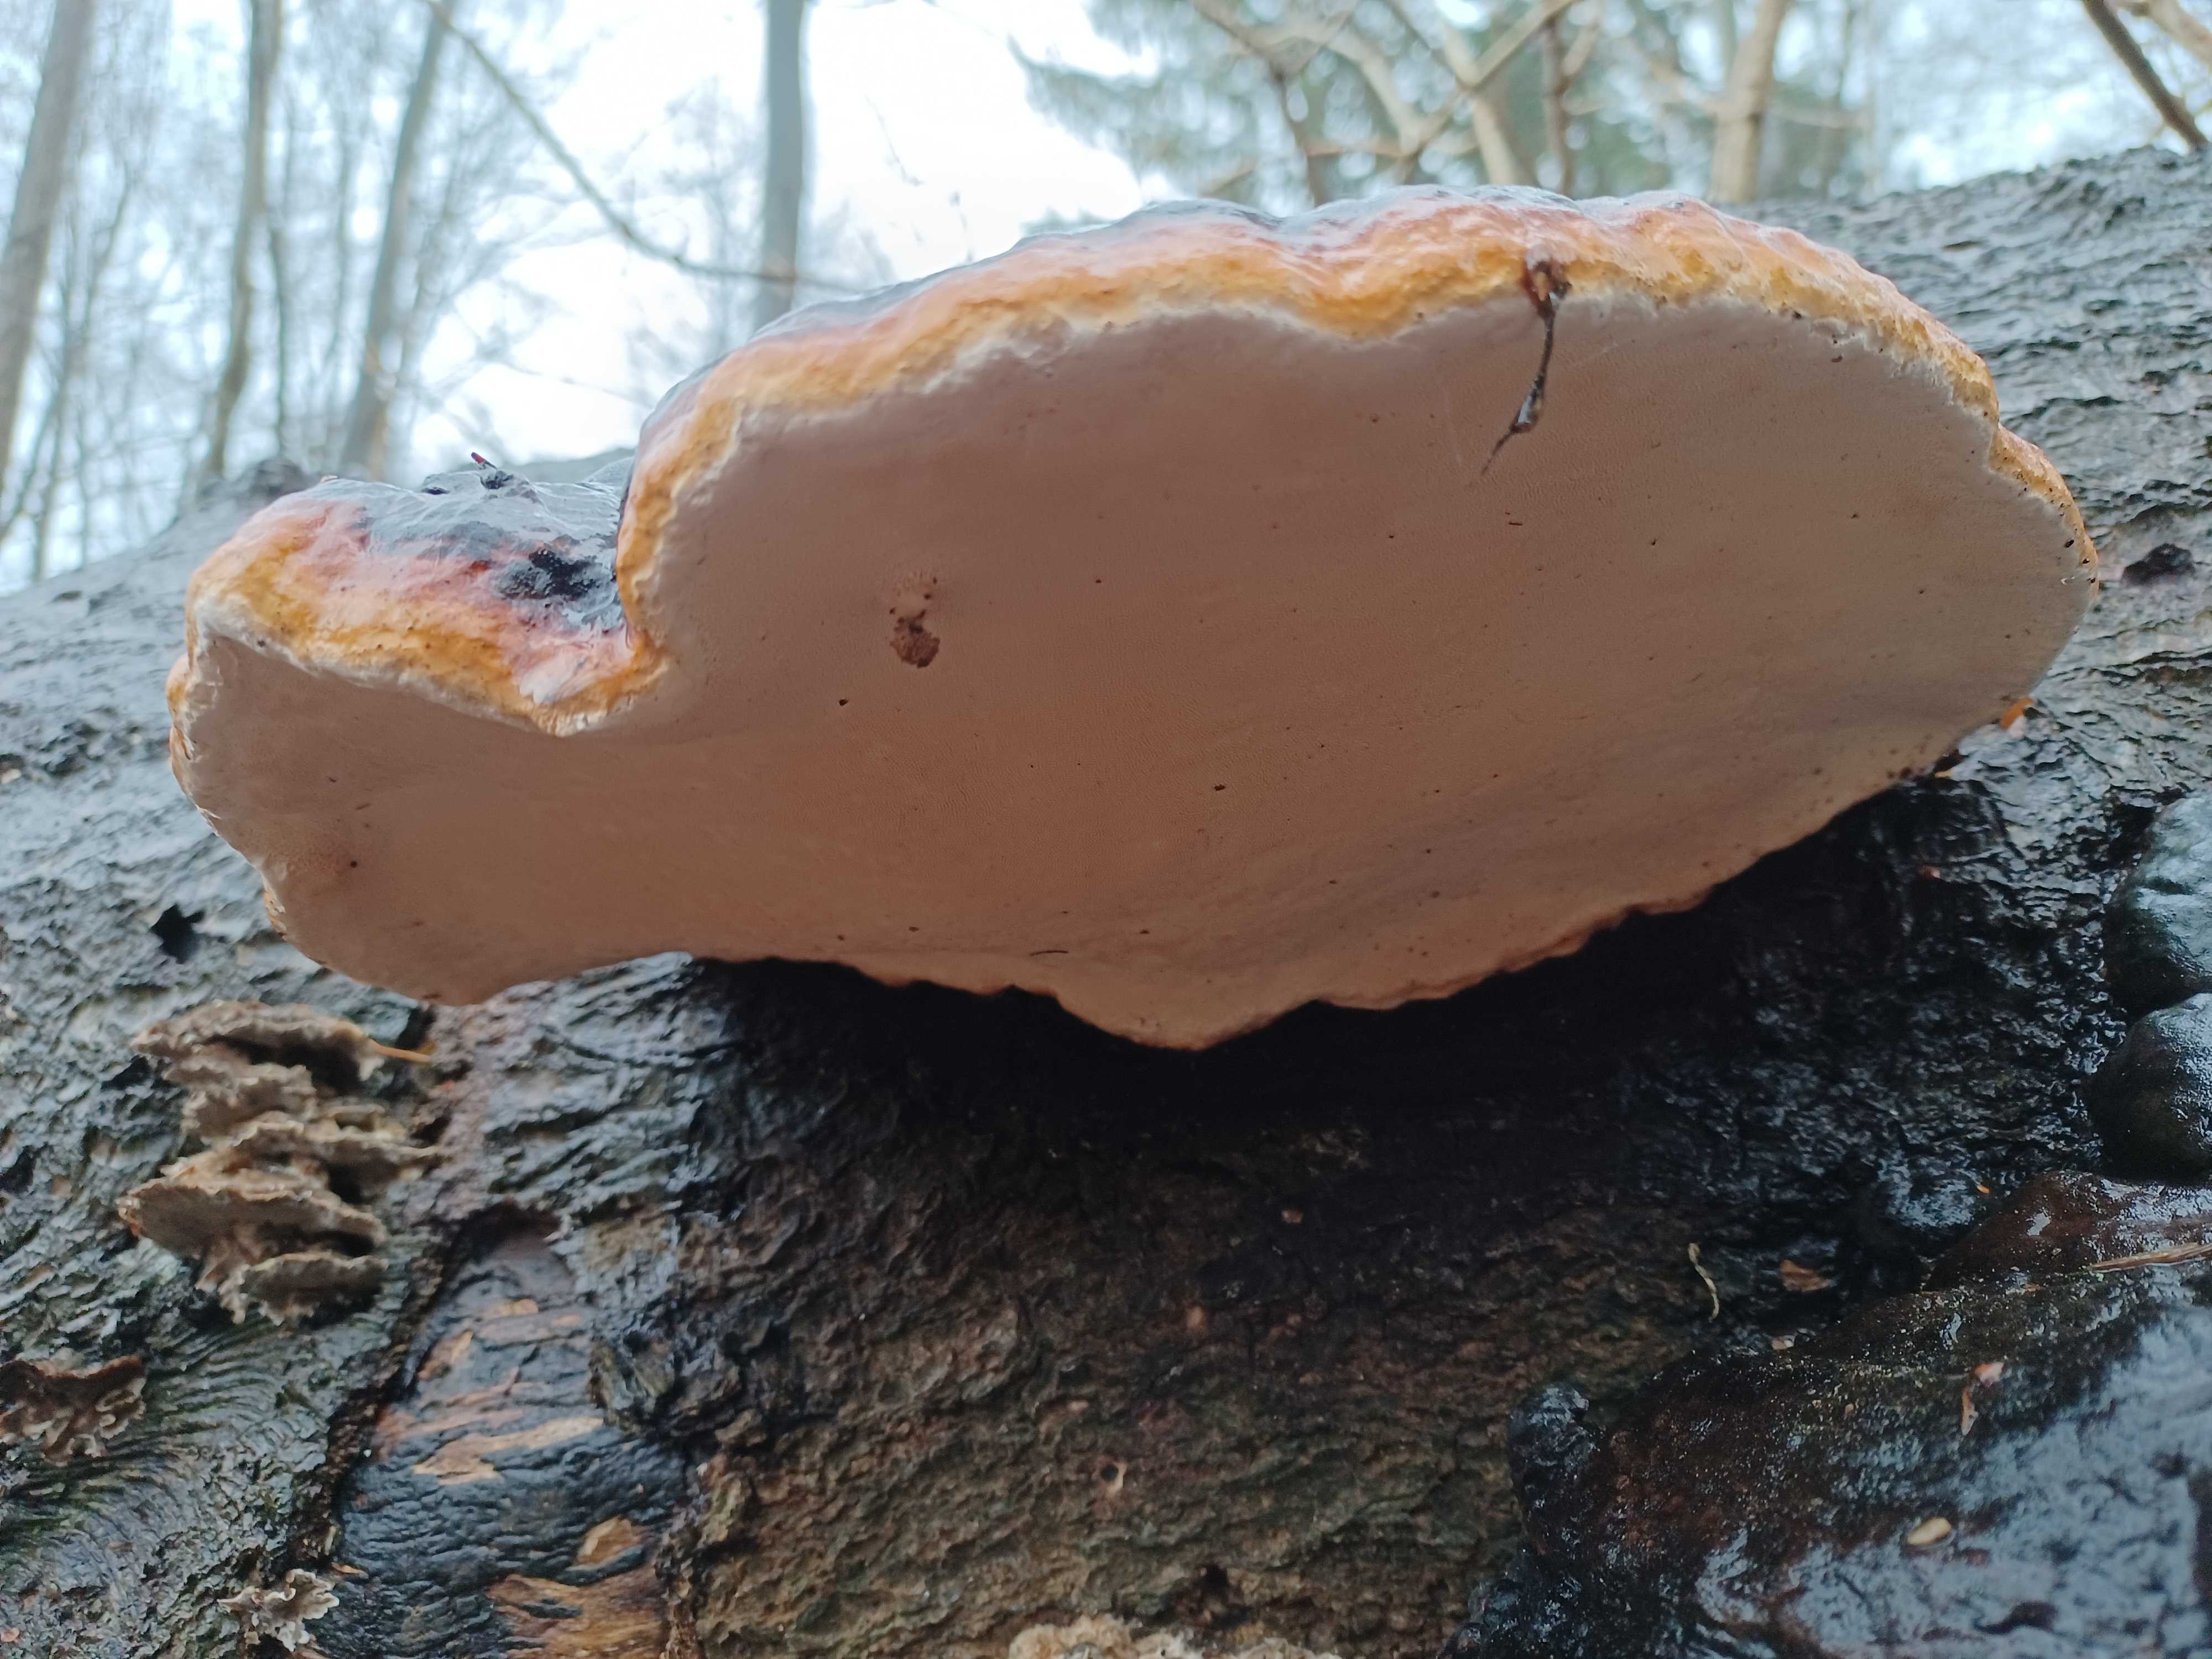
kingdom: Fungi
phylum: Basidiomycota
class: Agaricomycetes
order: Polyporales
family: Fomitopsidaceae
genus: Fomitopsis
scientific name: Fomitopsis pinicola
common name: randbæltet hovporesvamp
